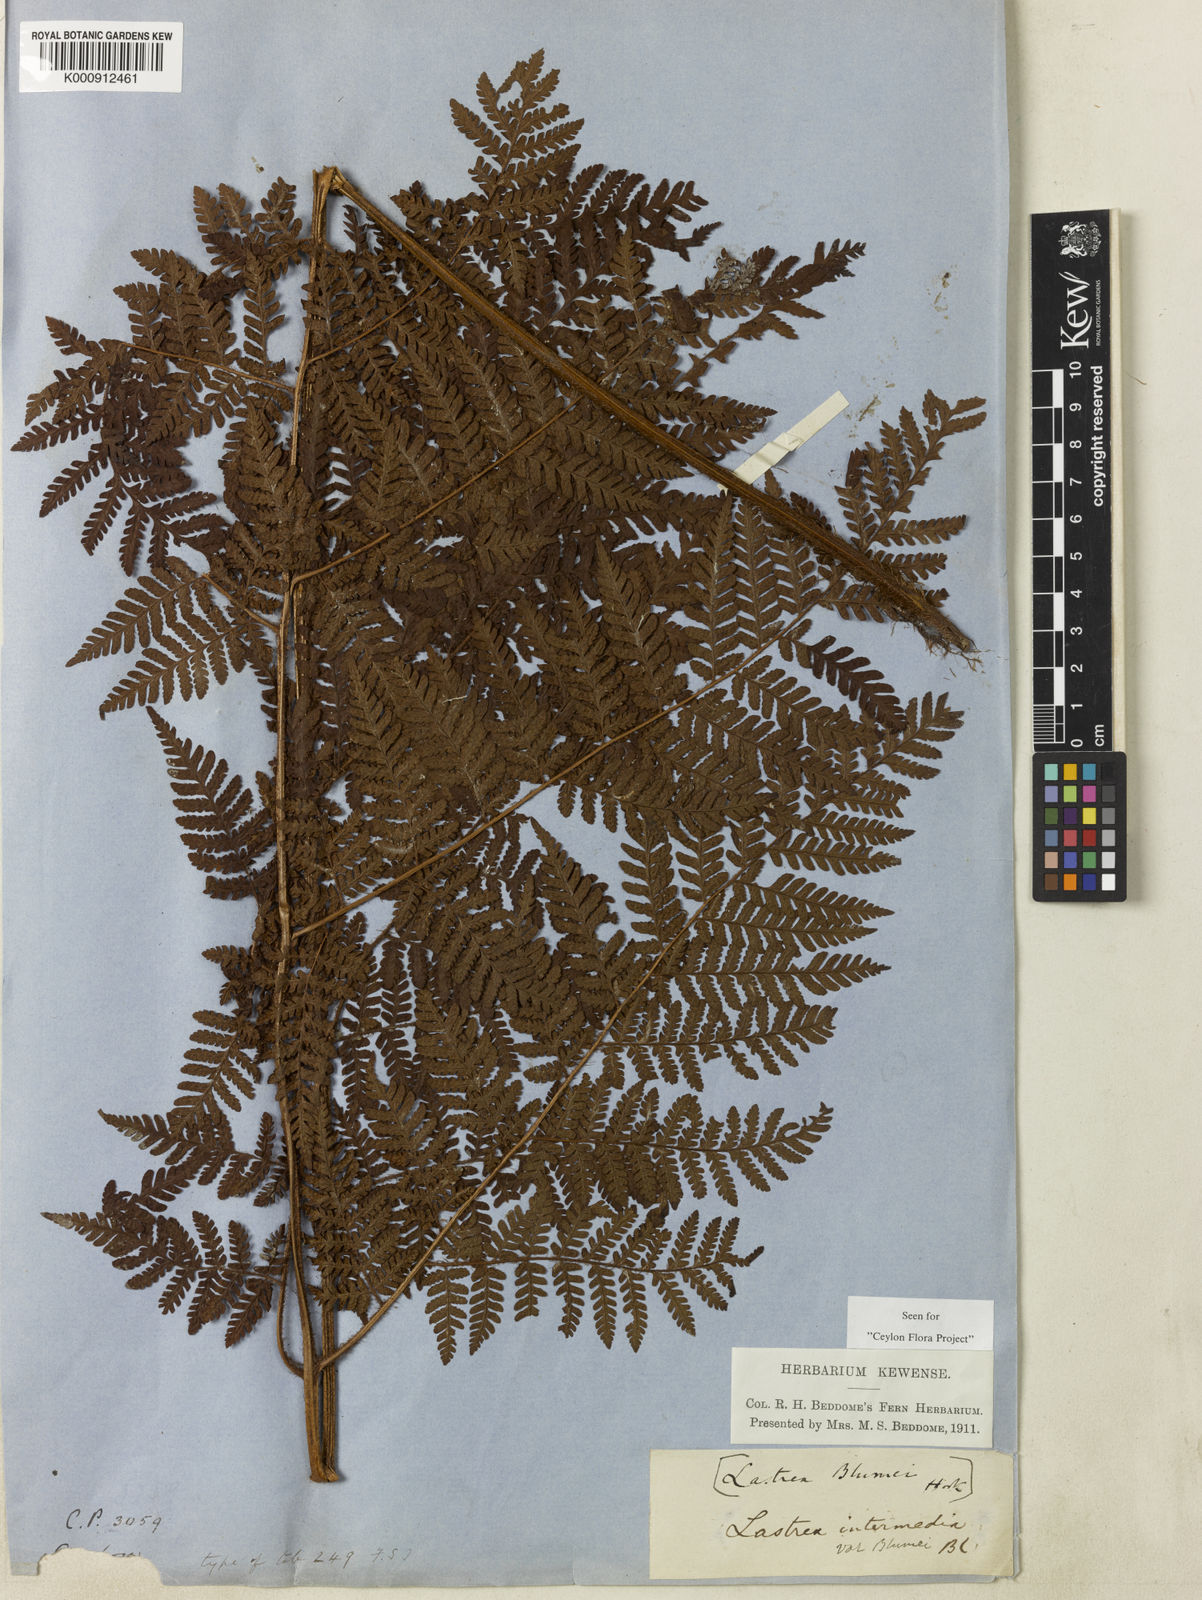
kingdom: Plantae
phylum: Tracheophyta
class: Polypodiopsida
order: Polypodiales
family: Dryopteridaceae
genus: Ctenitis
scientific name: Ctenitis thwaitesii
